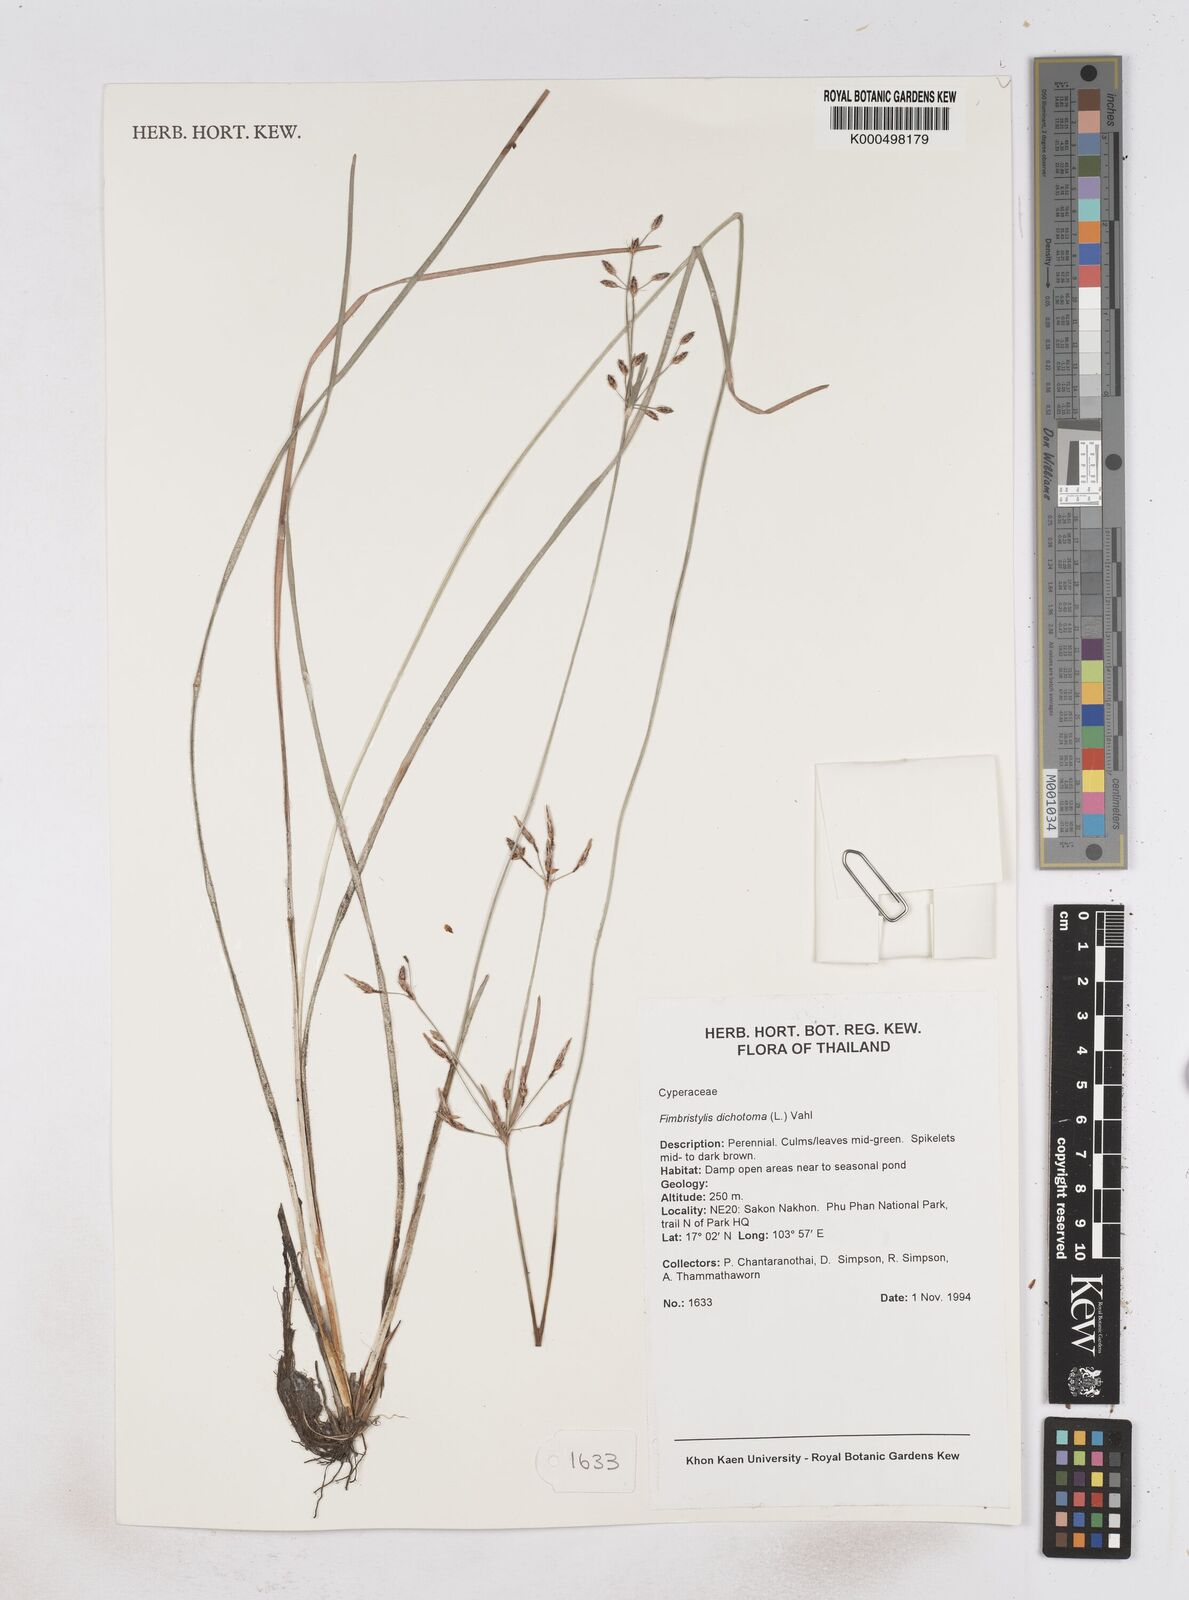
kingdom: Plantae
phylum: Tracheophyta
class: Liliopsida
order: Poales
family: Cyperaceae
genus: Fimbristylis
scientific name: Fimbristylis dichotoma
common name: Forked fimbry
